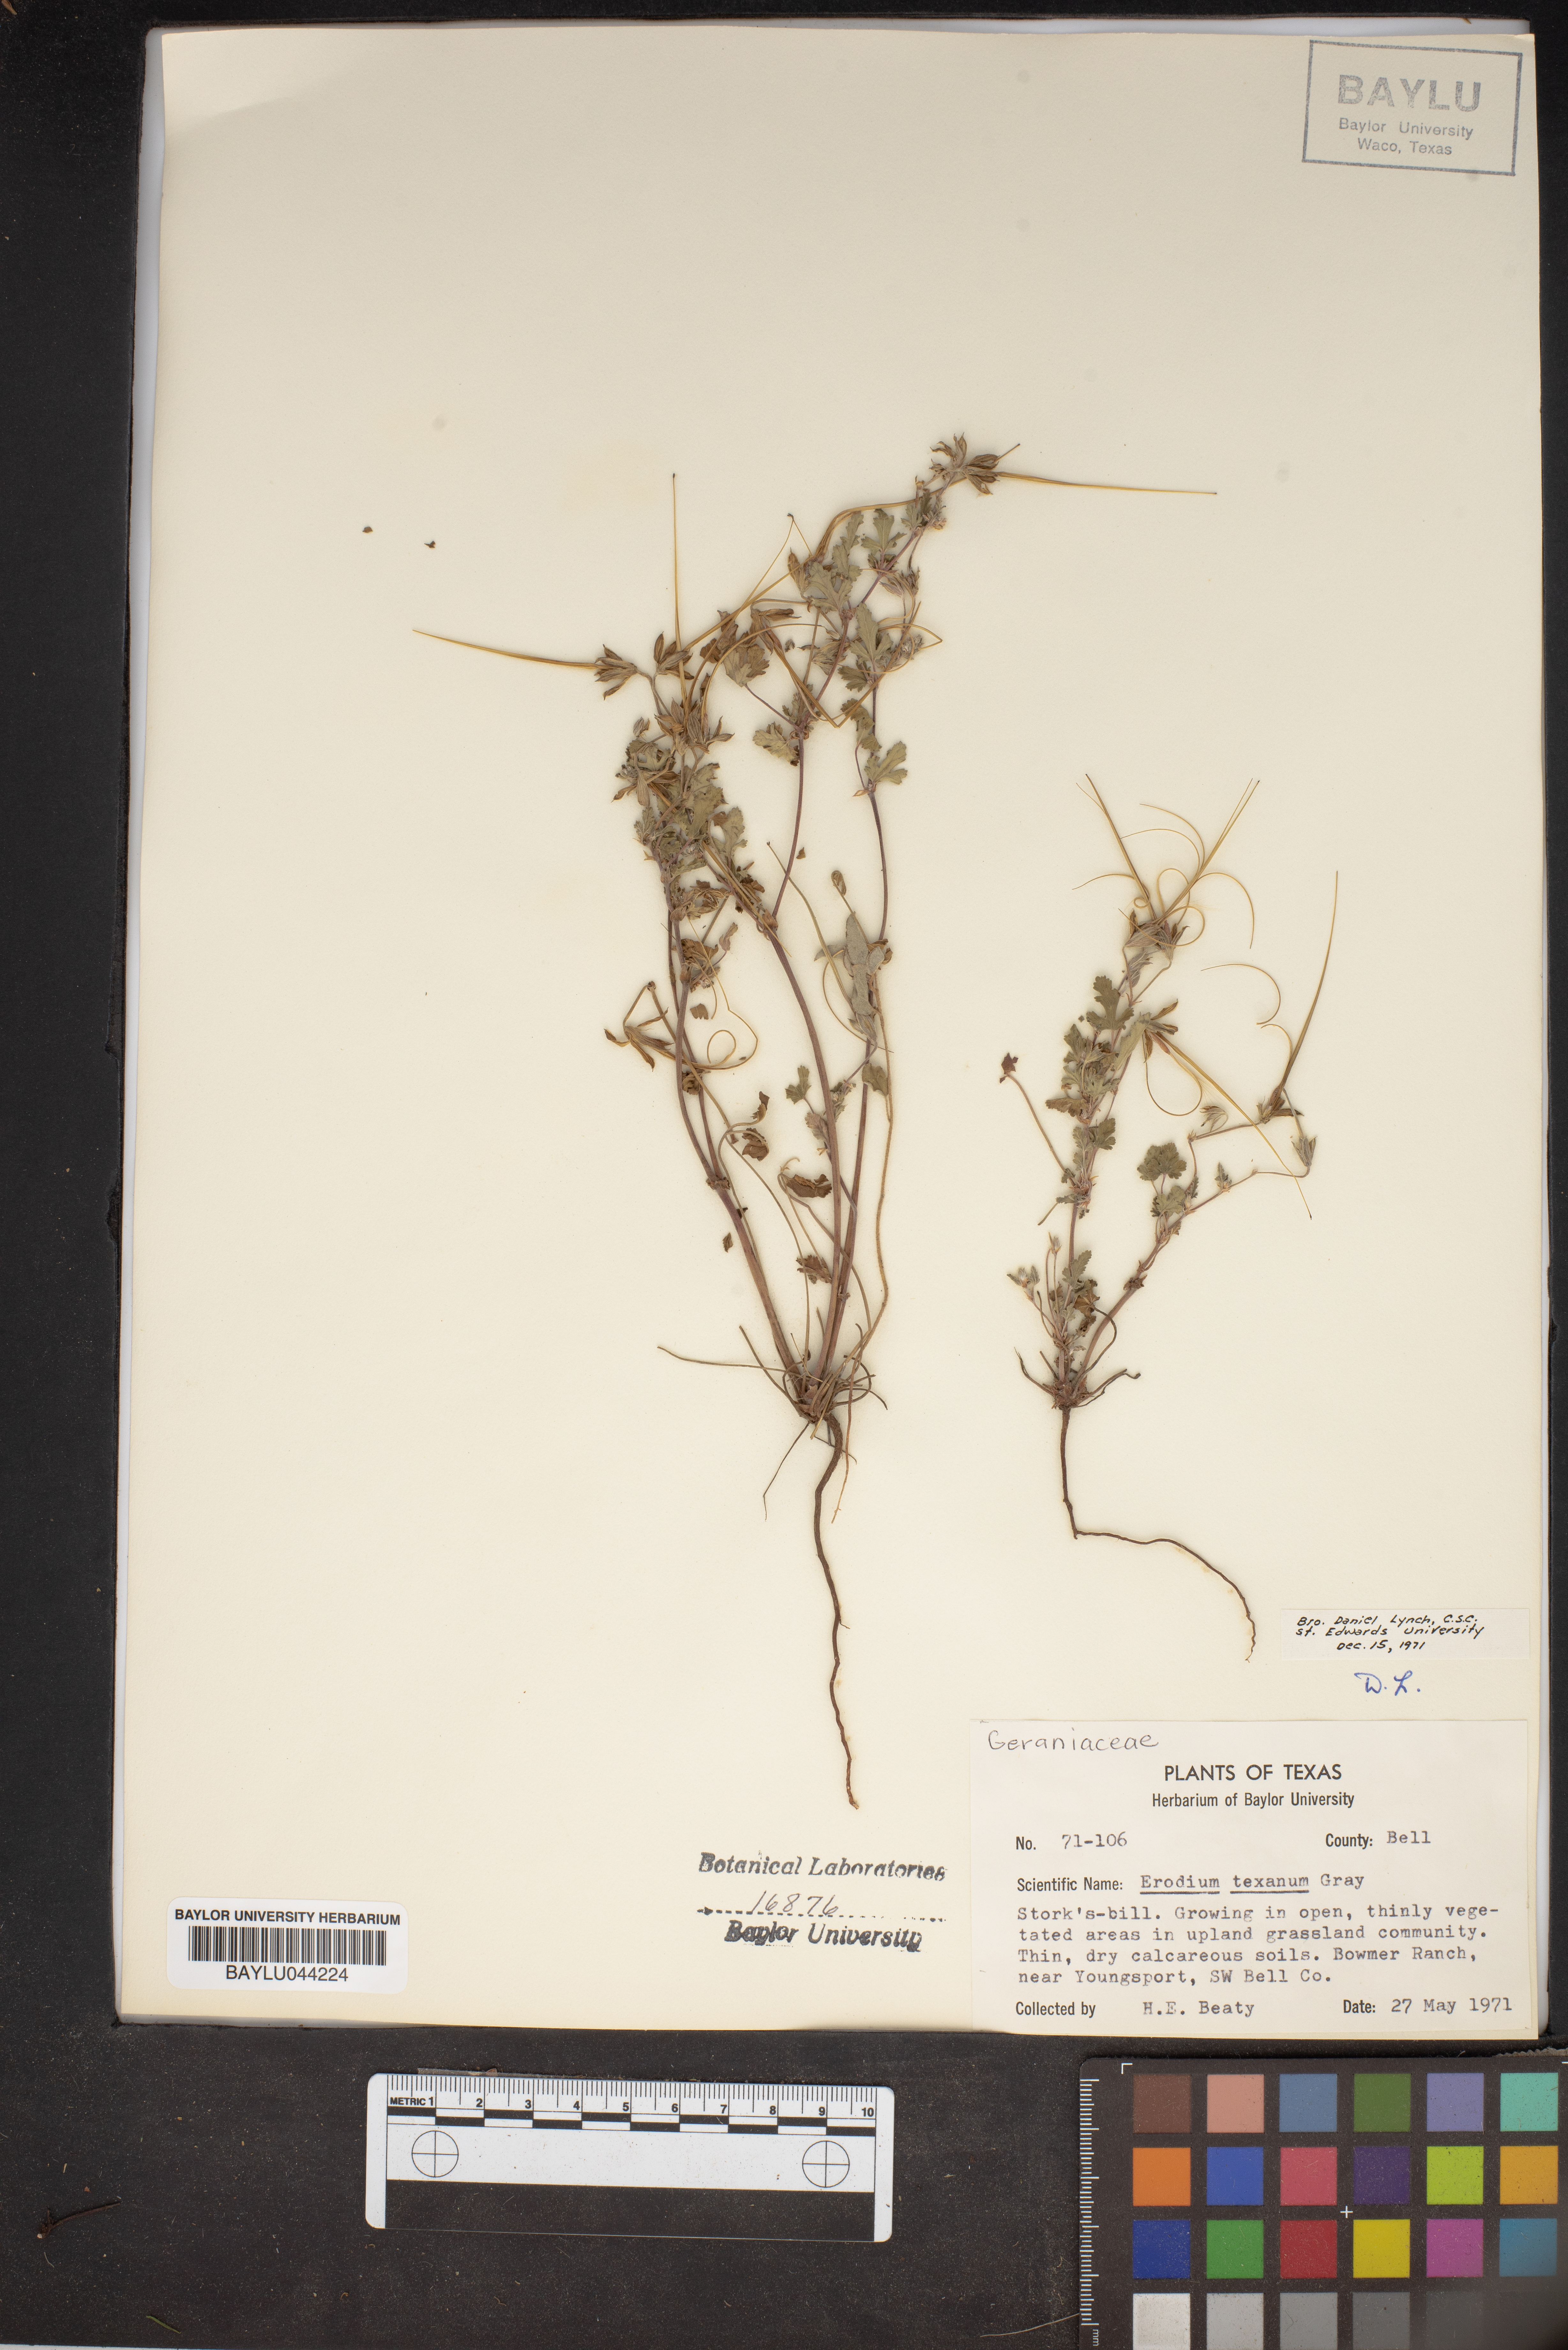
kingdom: Plantae
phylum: Tracheophyta
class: Magnoliopsida
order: Geraniales
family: Geraniaceae
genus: Erodium
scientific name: Erodium texanum
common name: Texas stork's-bill
